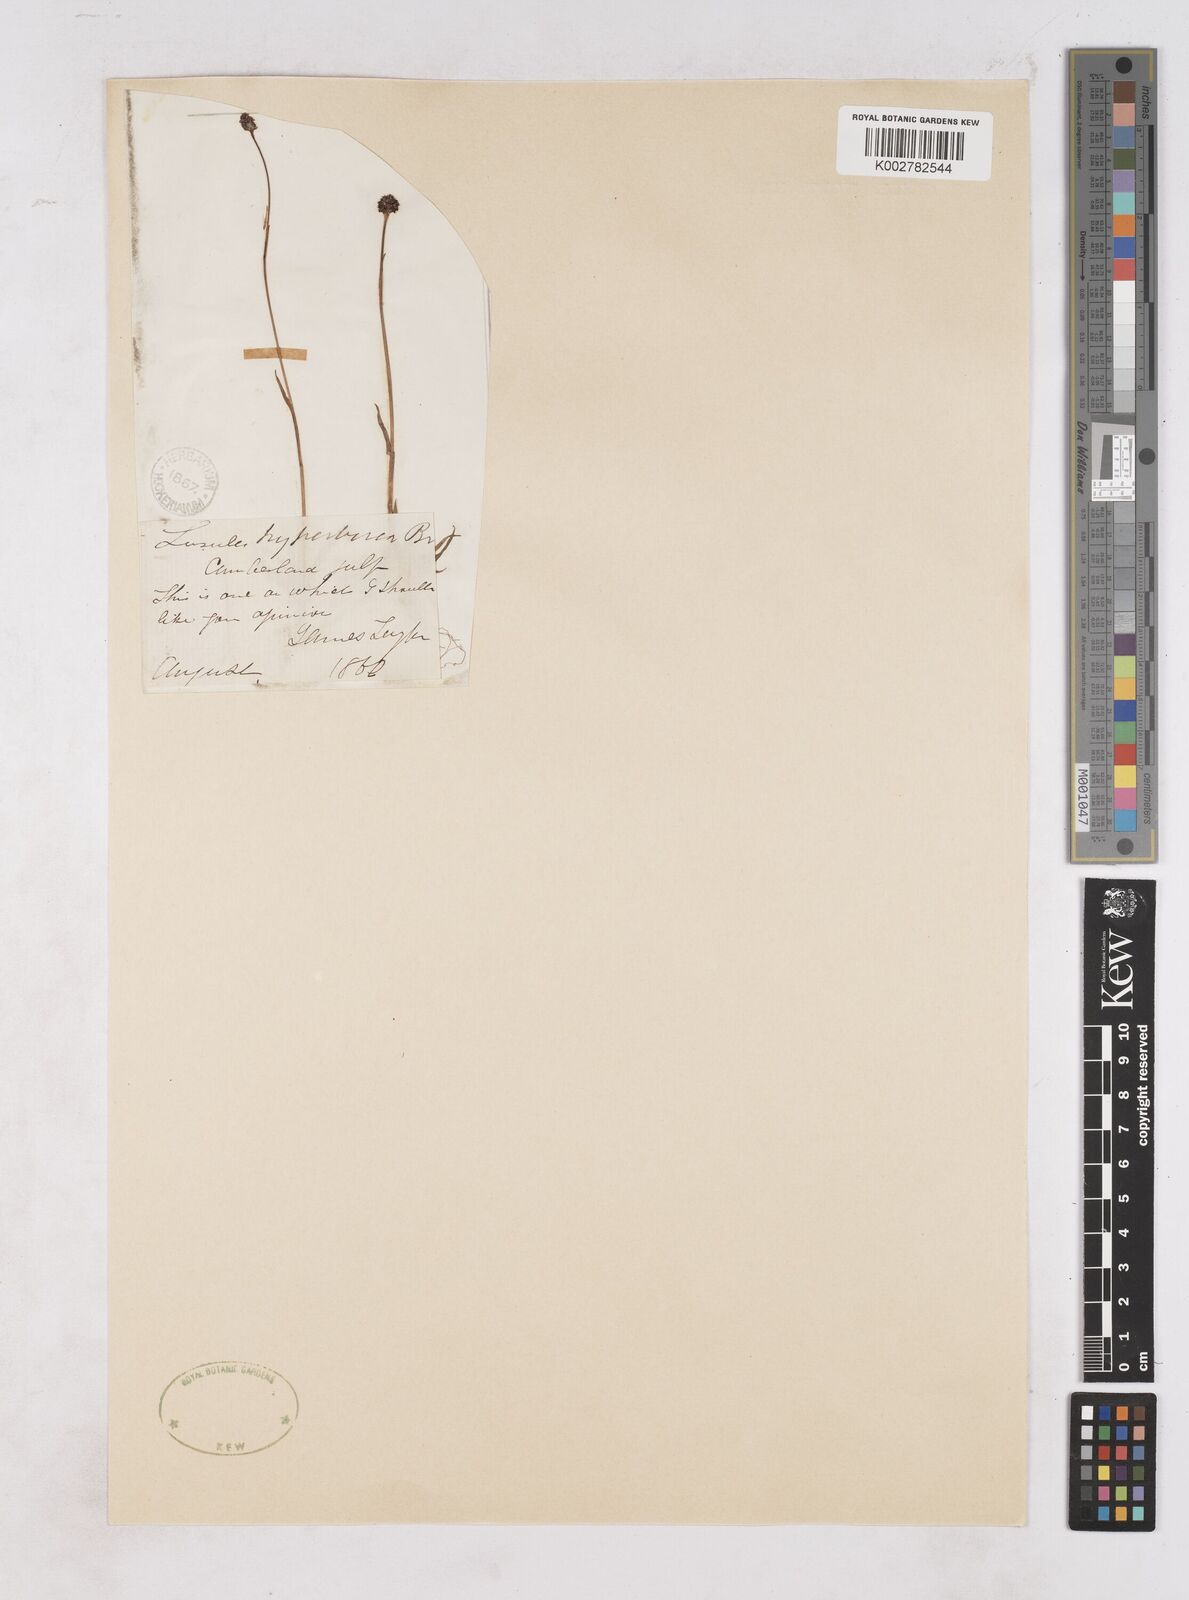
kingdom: Plantae
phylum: Tracheophyta
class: Liliopsida
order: Poales
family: Juncaceae
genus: Luzula
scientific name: Luzula confusa
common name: Northern wood rush
